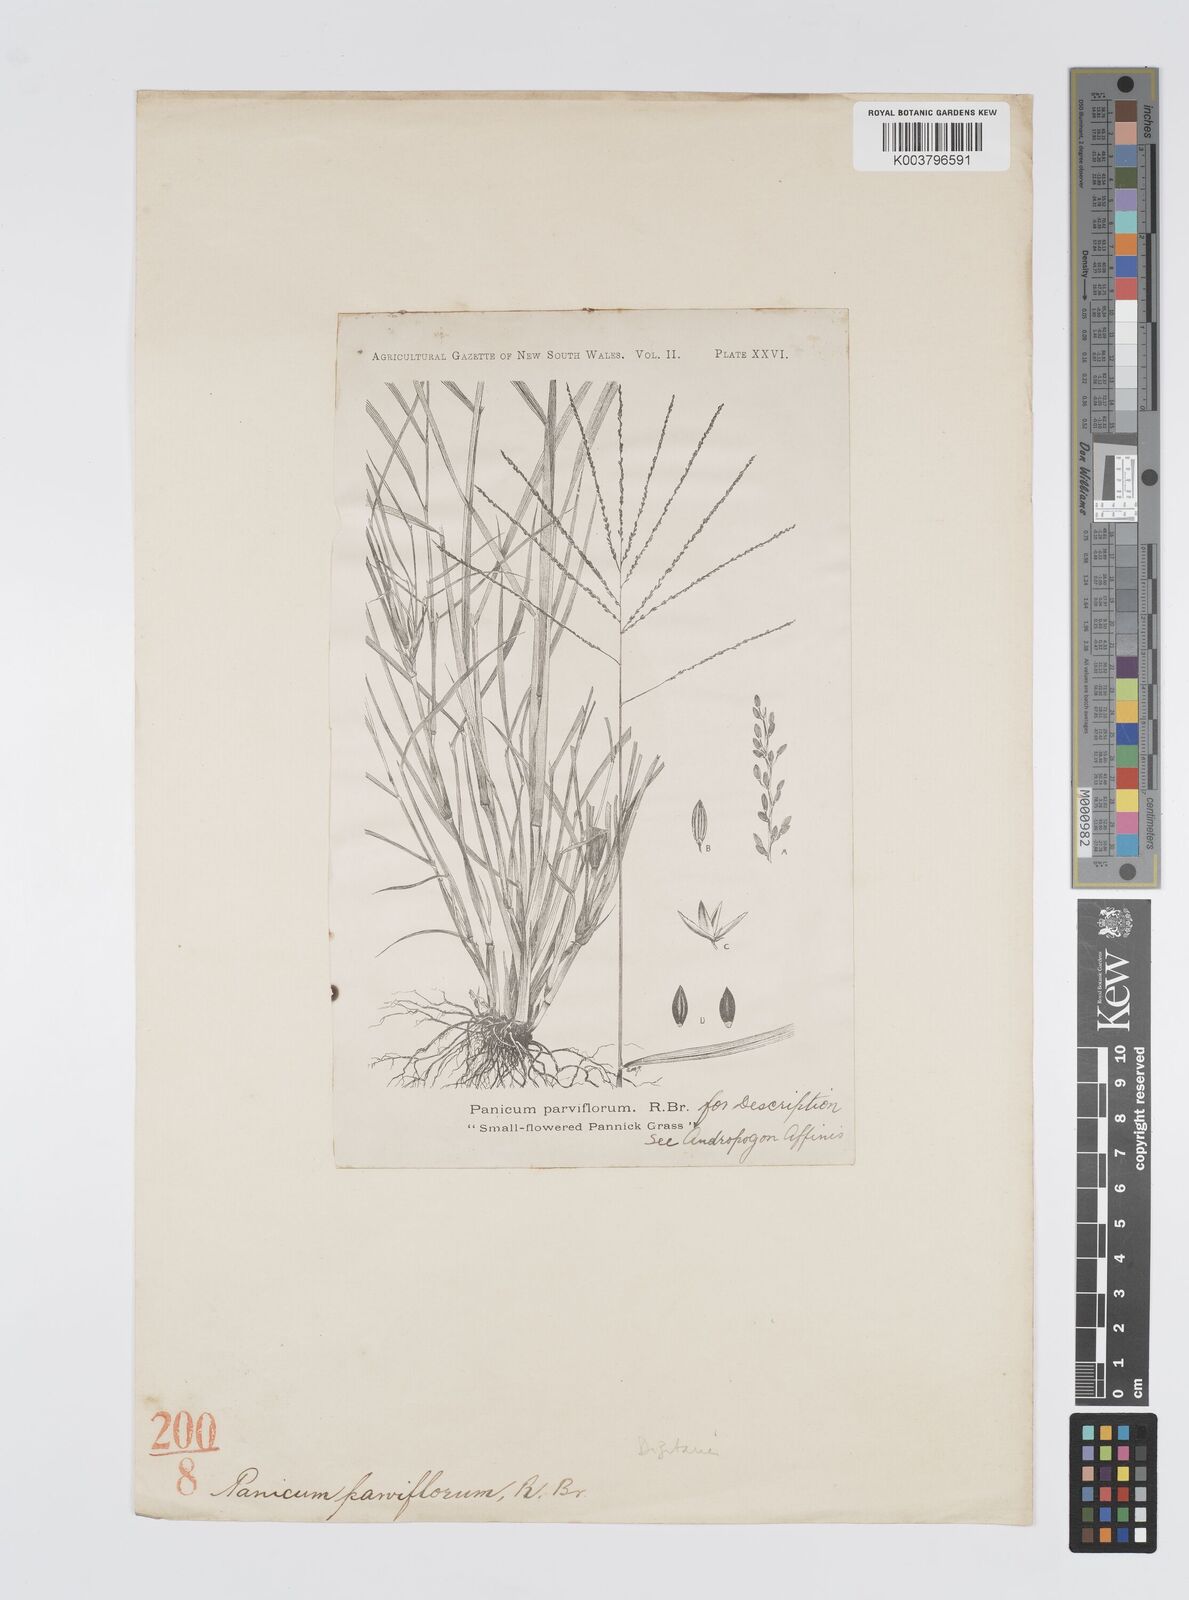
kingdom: Plantae
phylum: Tracheophyta
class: Liliopsida
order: Poales
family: Poaceae
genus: Digitaria
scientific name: Digitaria parviflora
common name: Small-flower finger grass
